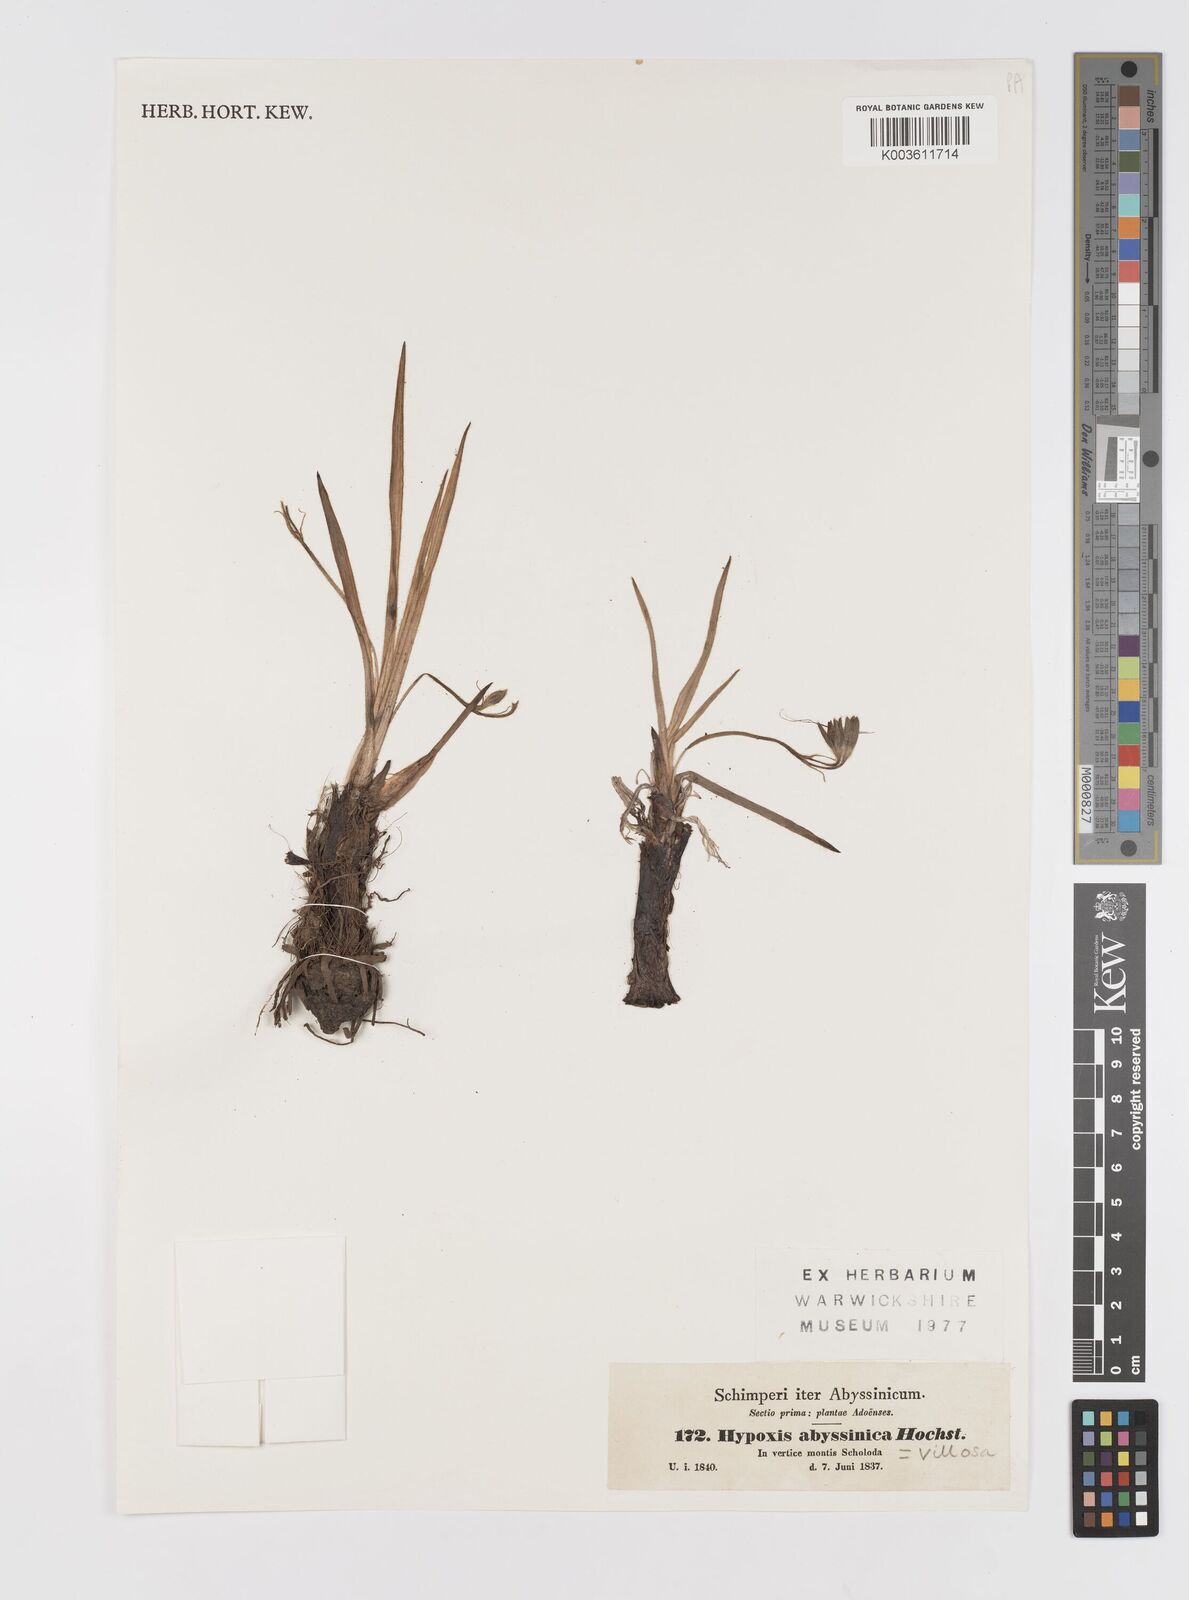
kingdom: Plantae
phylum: Tracheophyta
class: Liliopsida
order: Asparagales
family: Hypoxidaceae
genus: Hypoxis
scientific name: Hypoxis villosa
